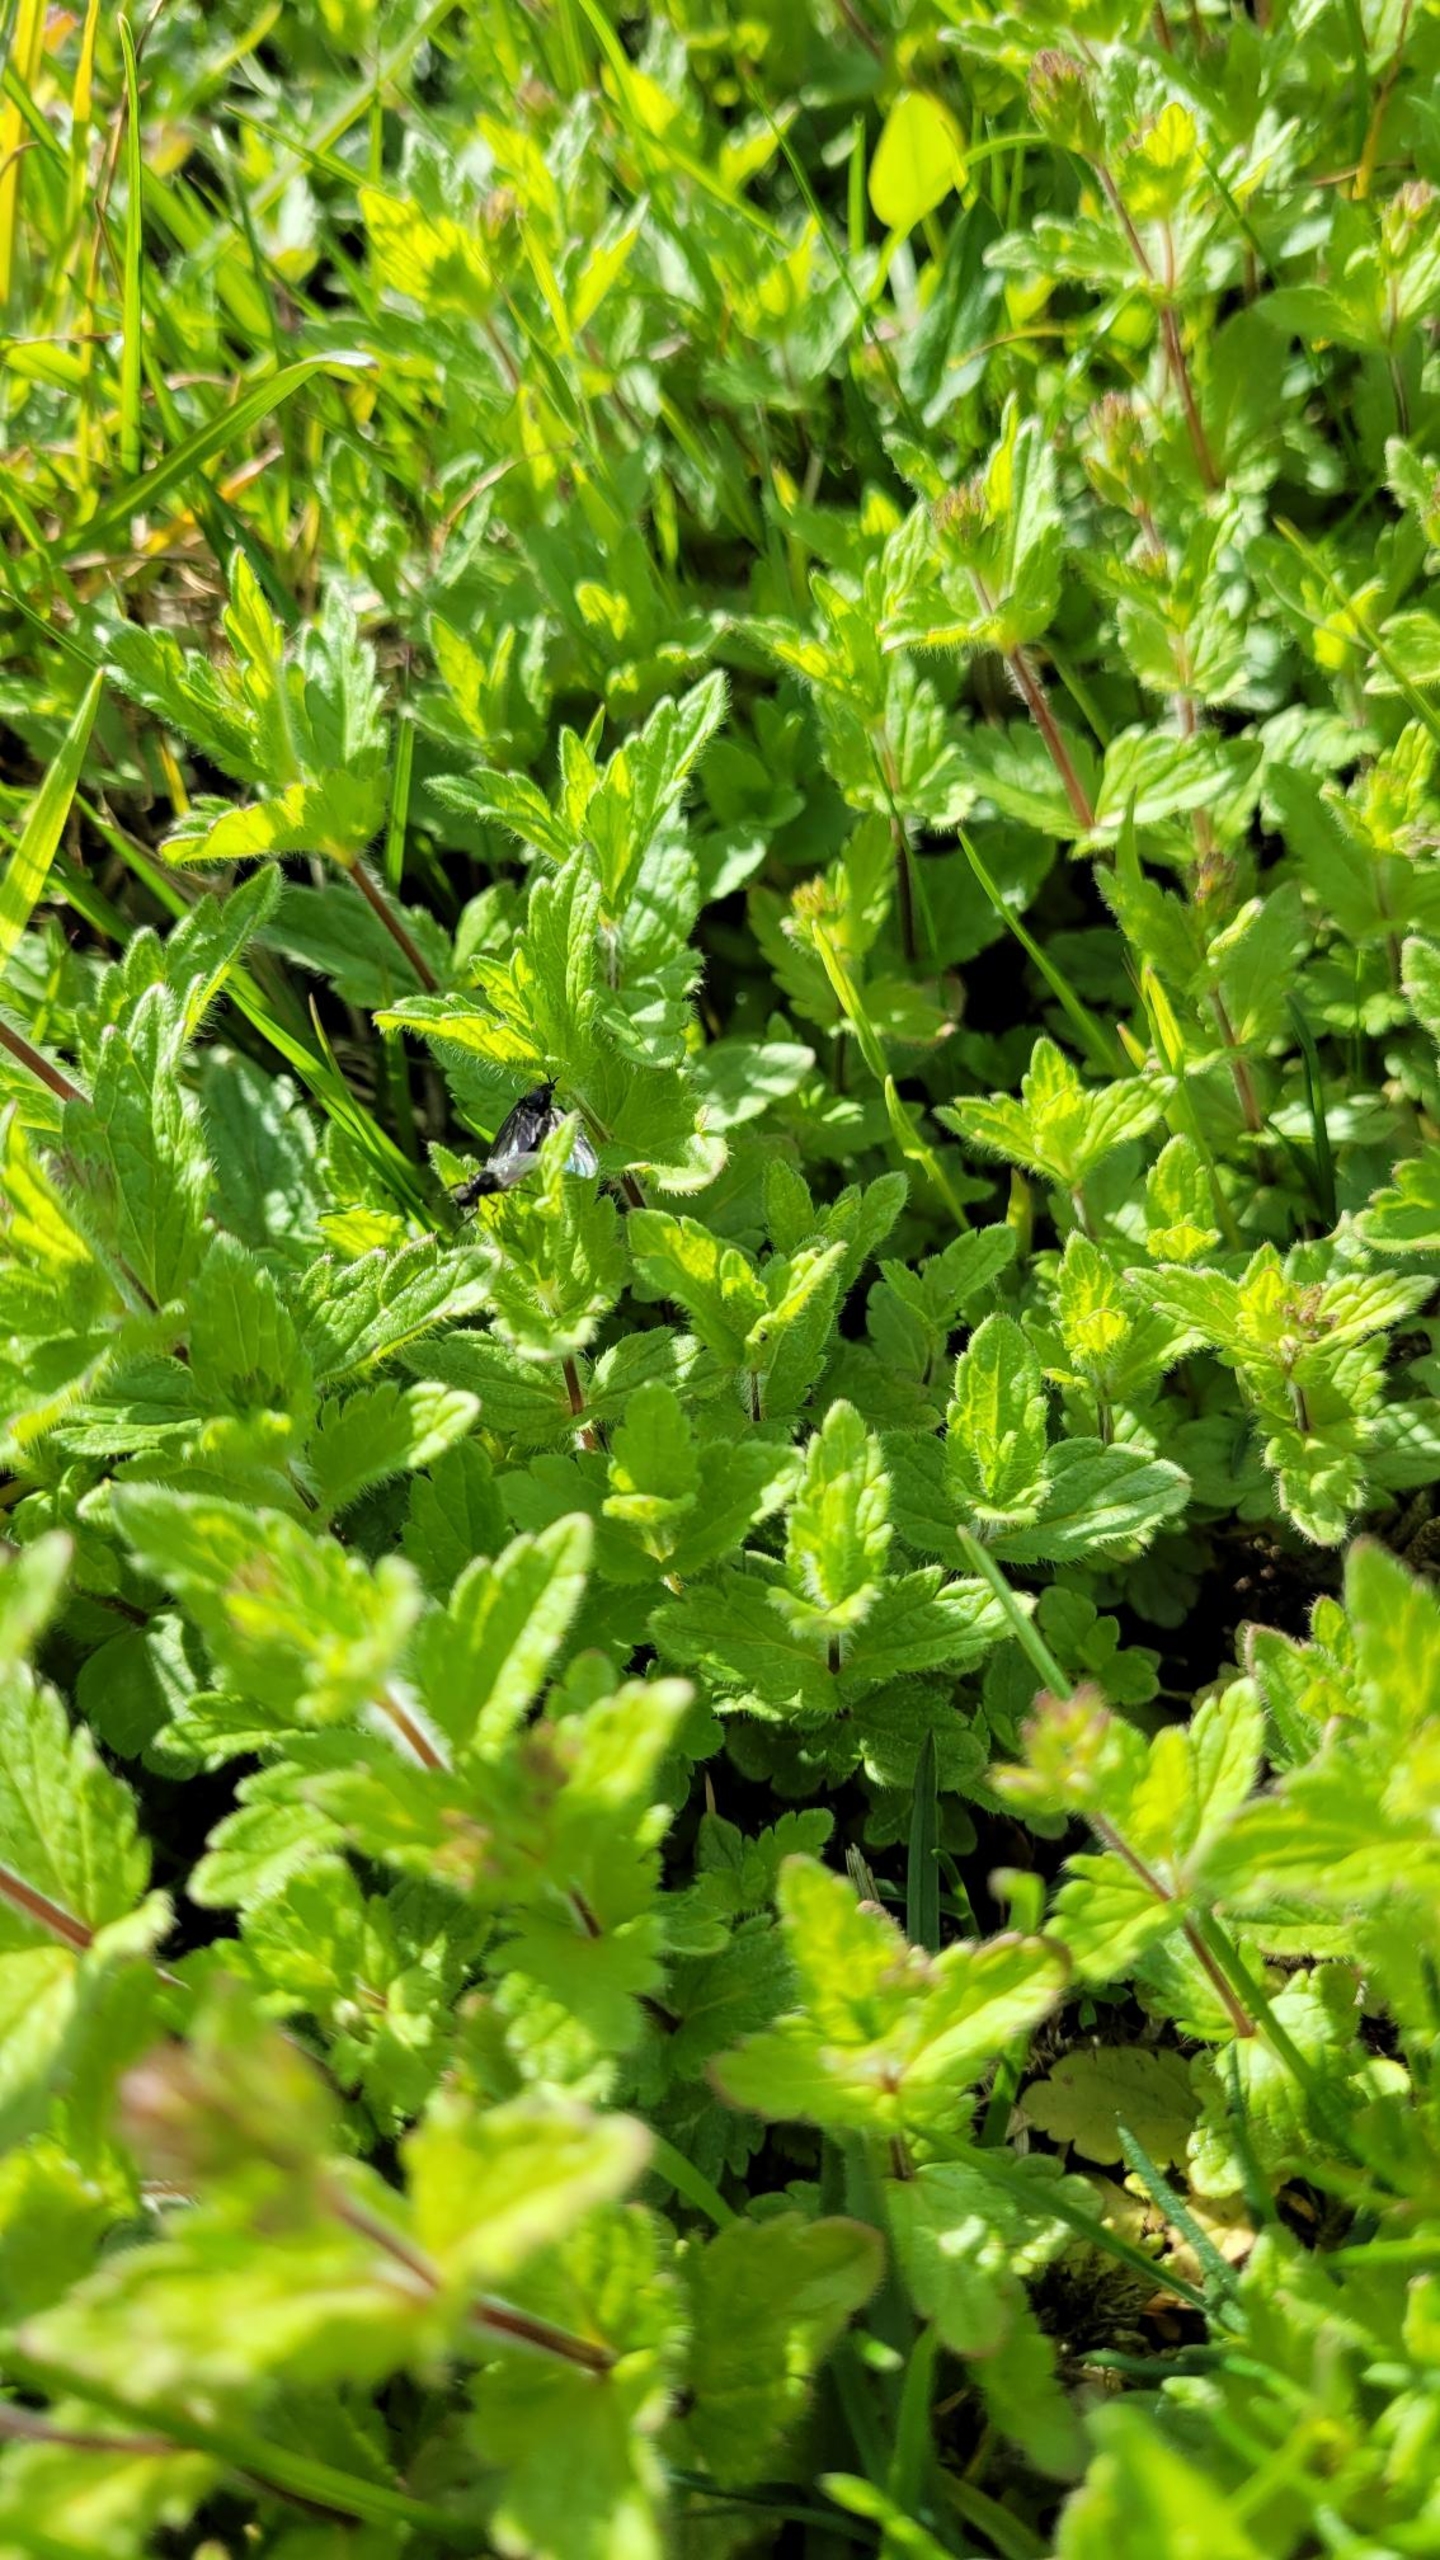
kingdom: Plantae
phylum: Tracheophyta
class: Magnoliopsida
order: Lamiales
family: Plantaginaceae
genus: Veronica
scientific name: Veronica chamaedrys
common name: Tveskægget ærenpris
